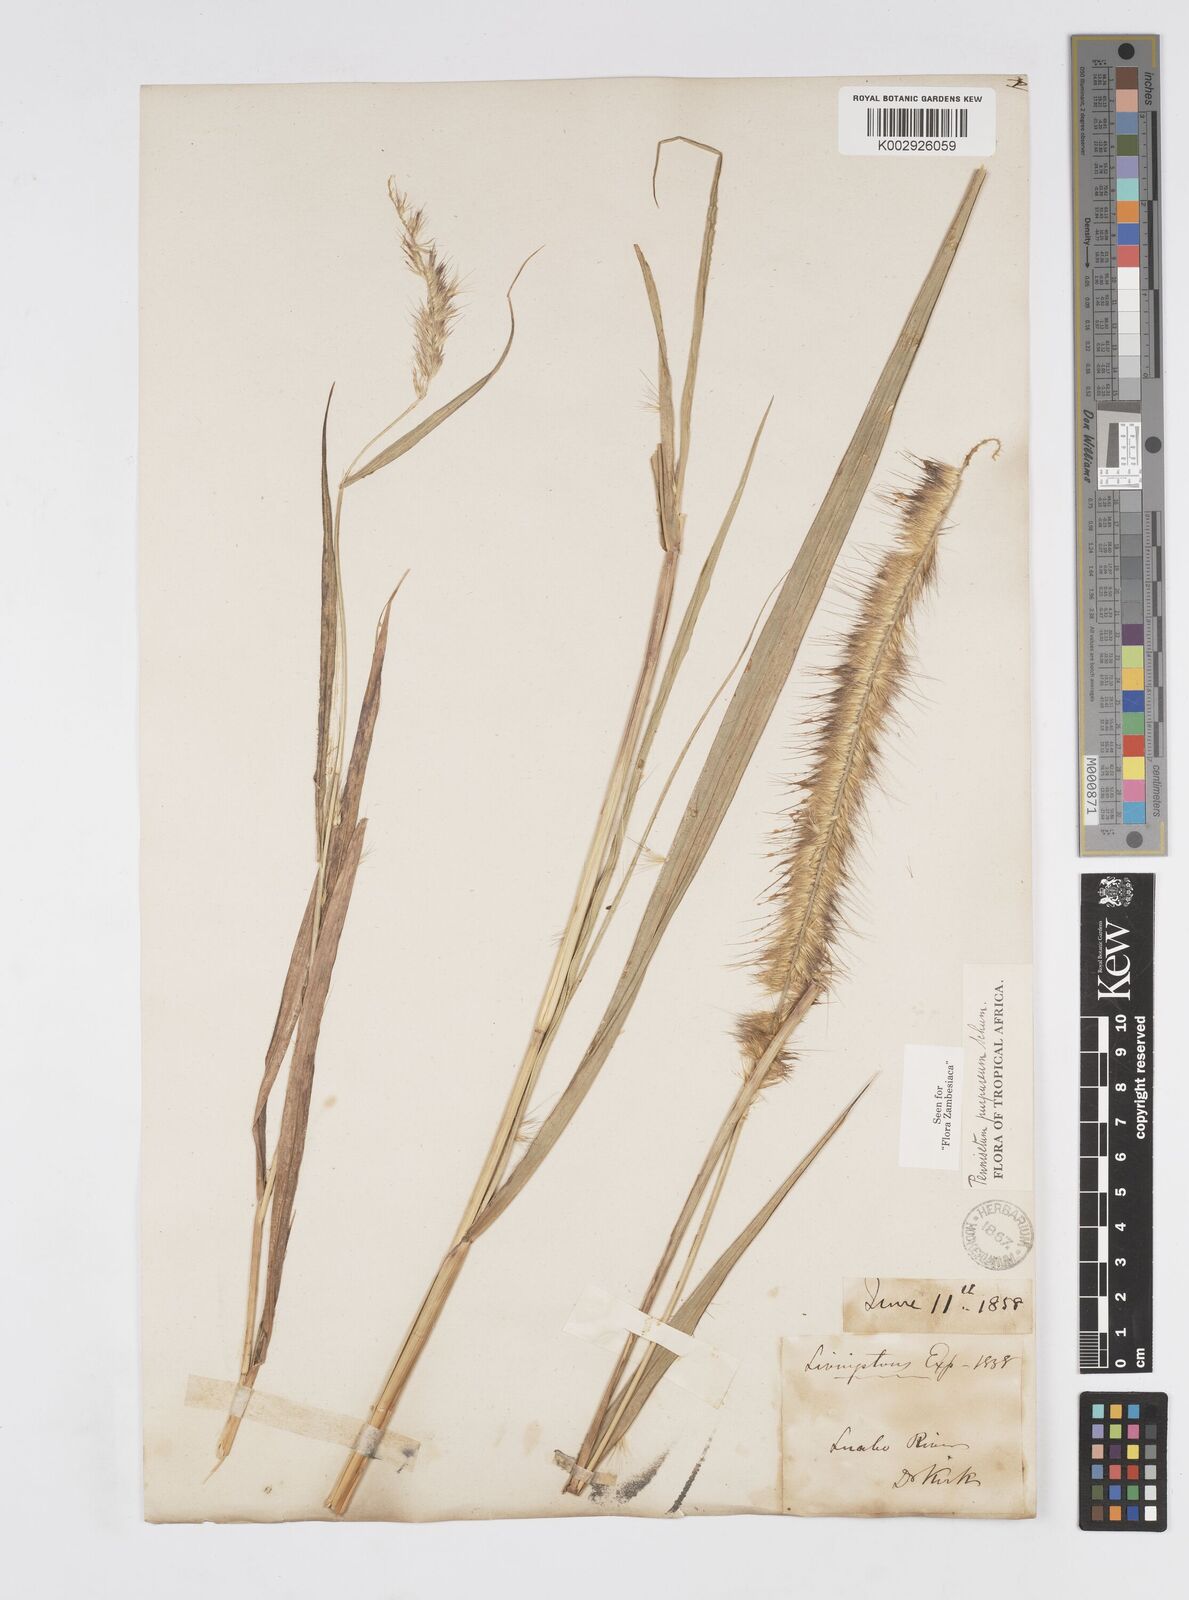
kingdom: Plantae
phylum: Tracheophyta
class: Liliopsida
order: Poales
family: Poaceae
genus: Cenchrus
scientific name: Cenchrus purpureus
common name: Elephant grass
